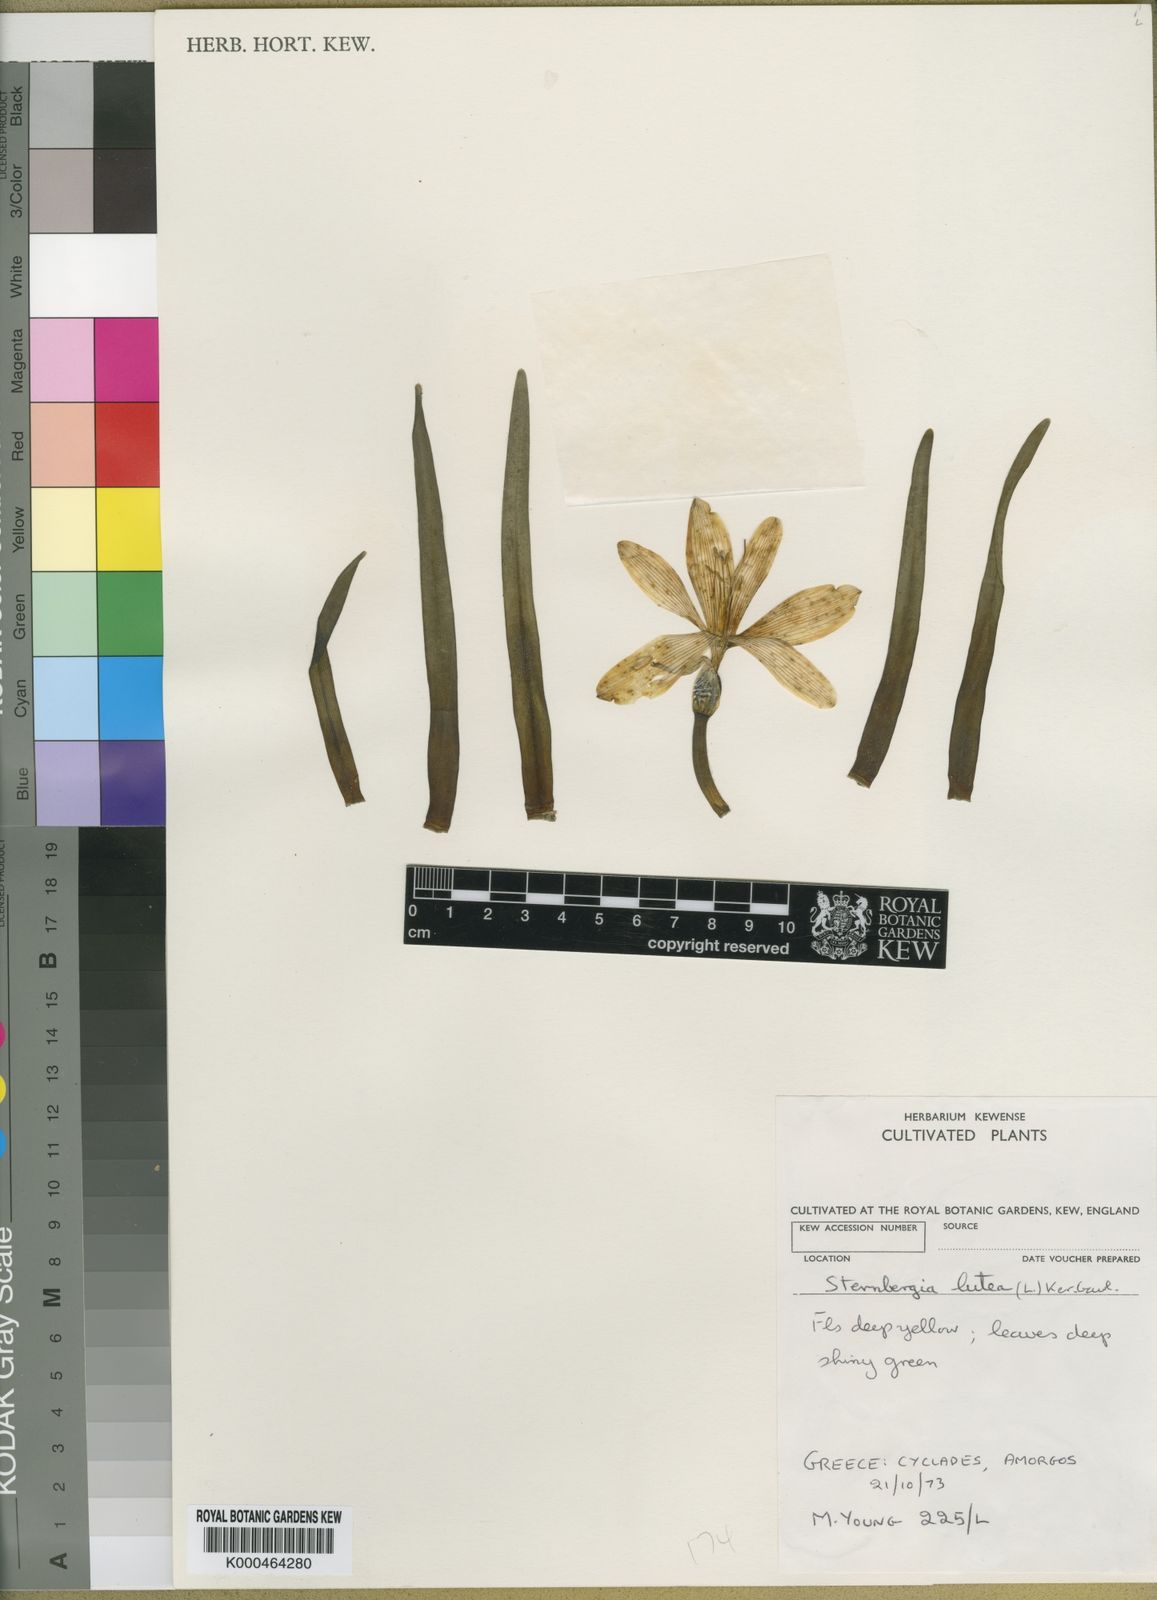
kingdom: Plantae
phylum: Tracheophyta
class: Liliopsida
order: Asparagales
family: Amaryllidaceae
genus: Sternbergia
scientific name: Sternbergia
